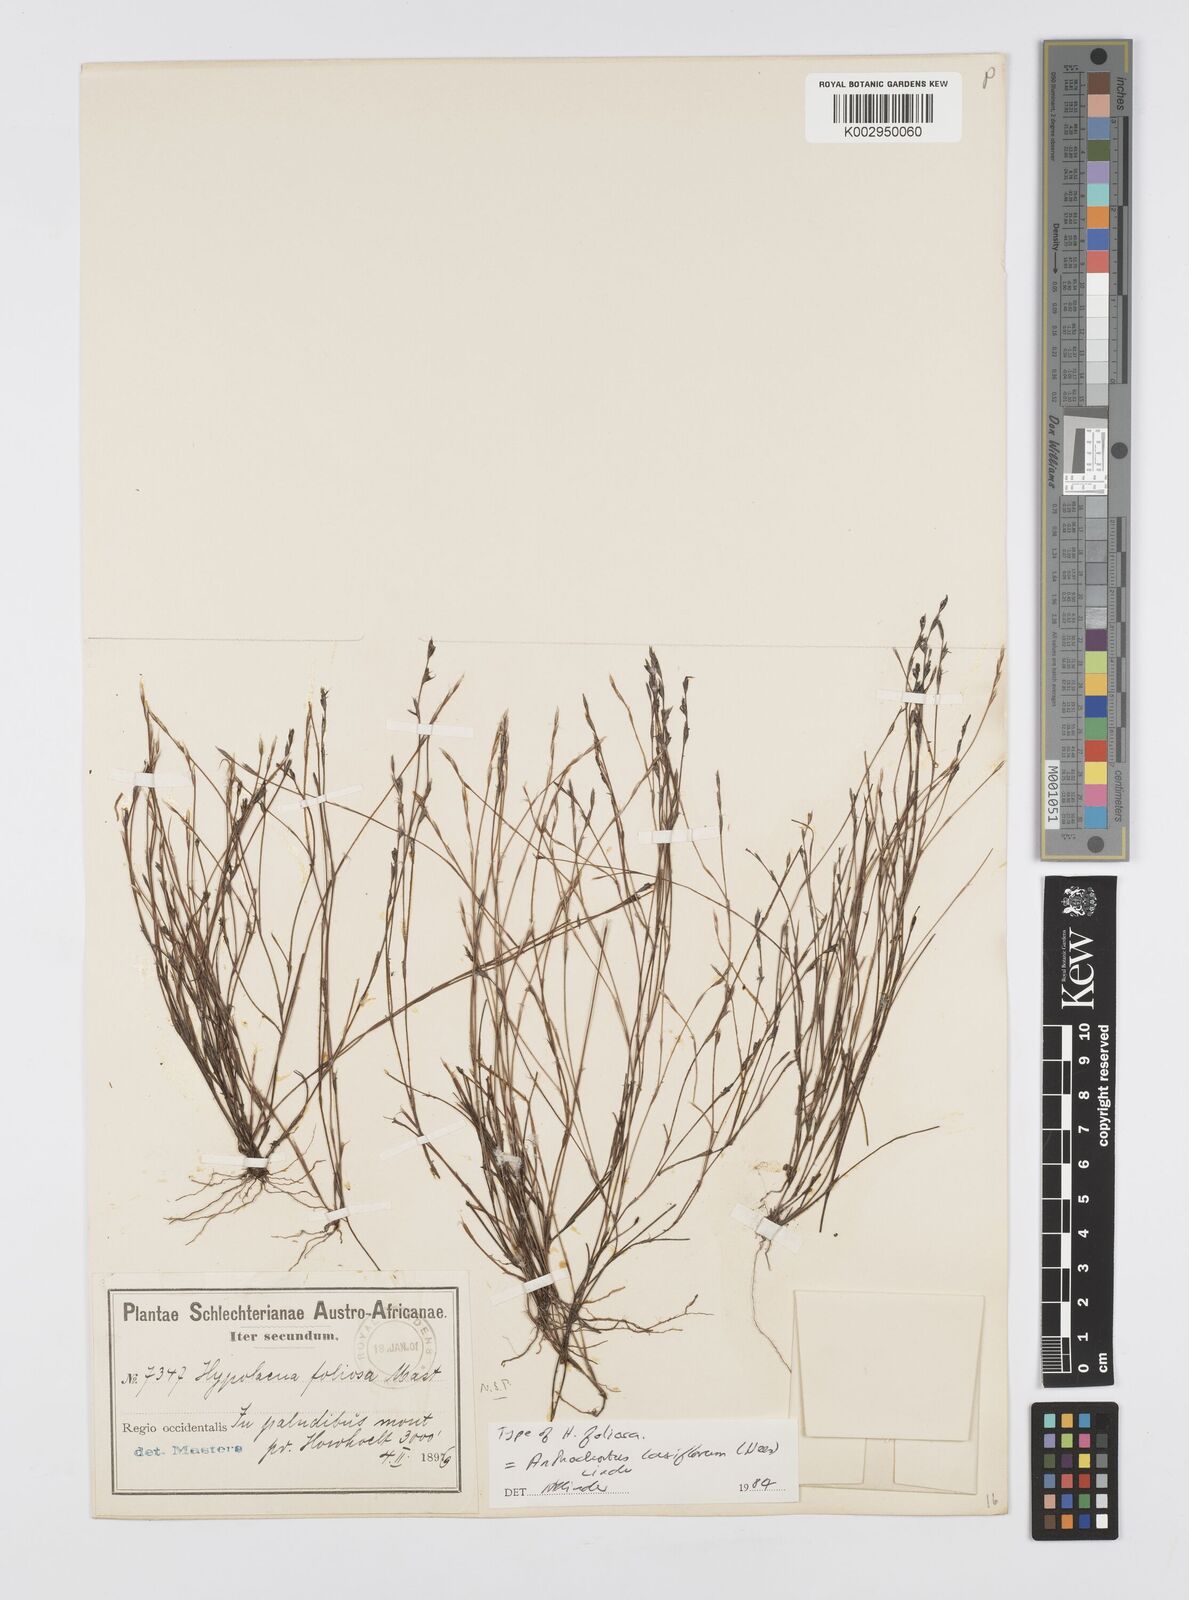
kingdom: Plantae
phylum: Tracheophyta
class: Liliopsida
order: Poales
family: Restionaceae
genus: Anthochortus
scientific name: Anthochortus laxiflorus
